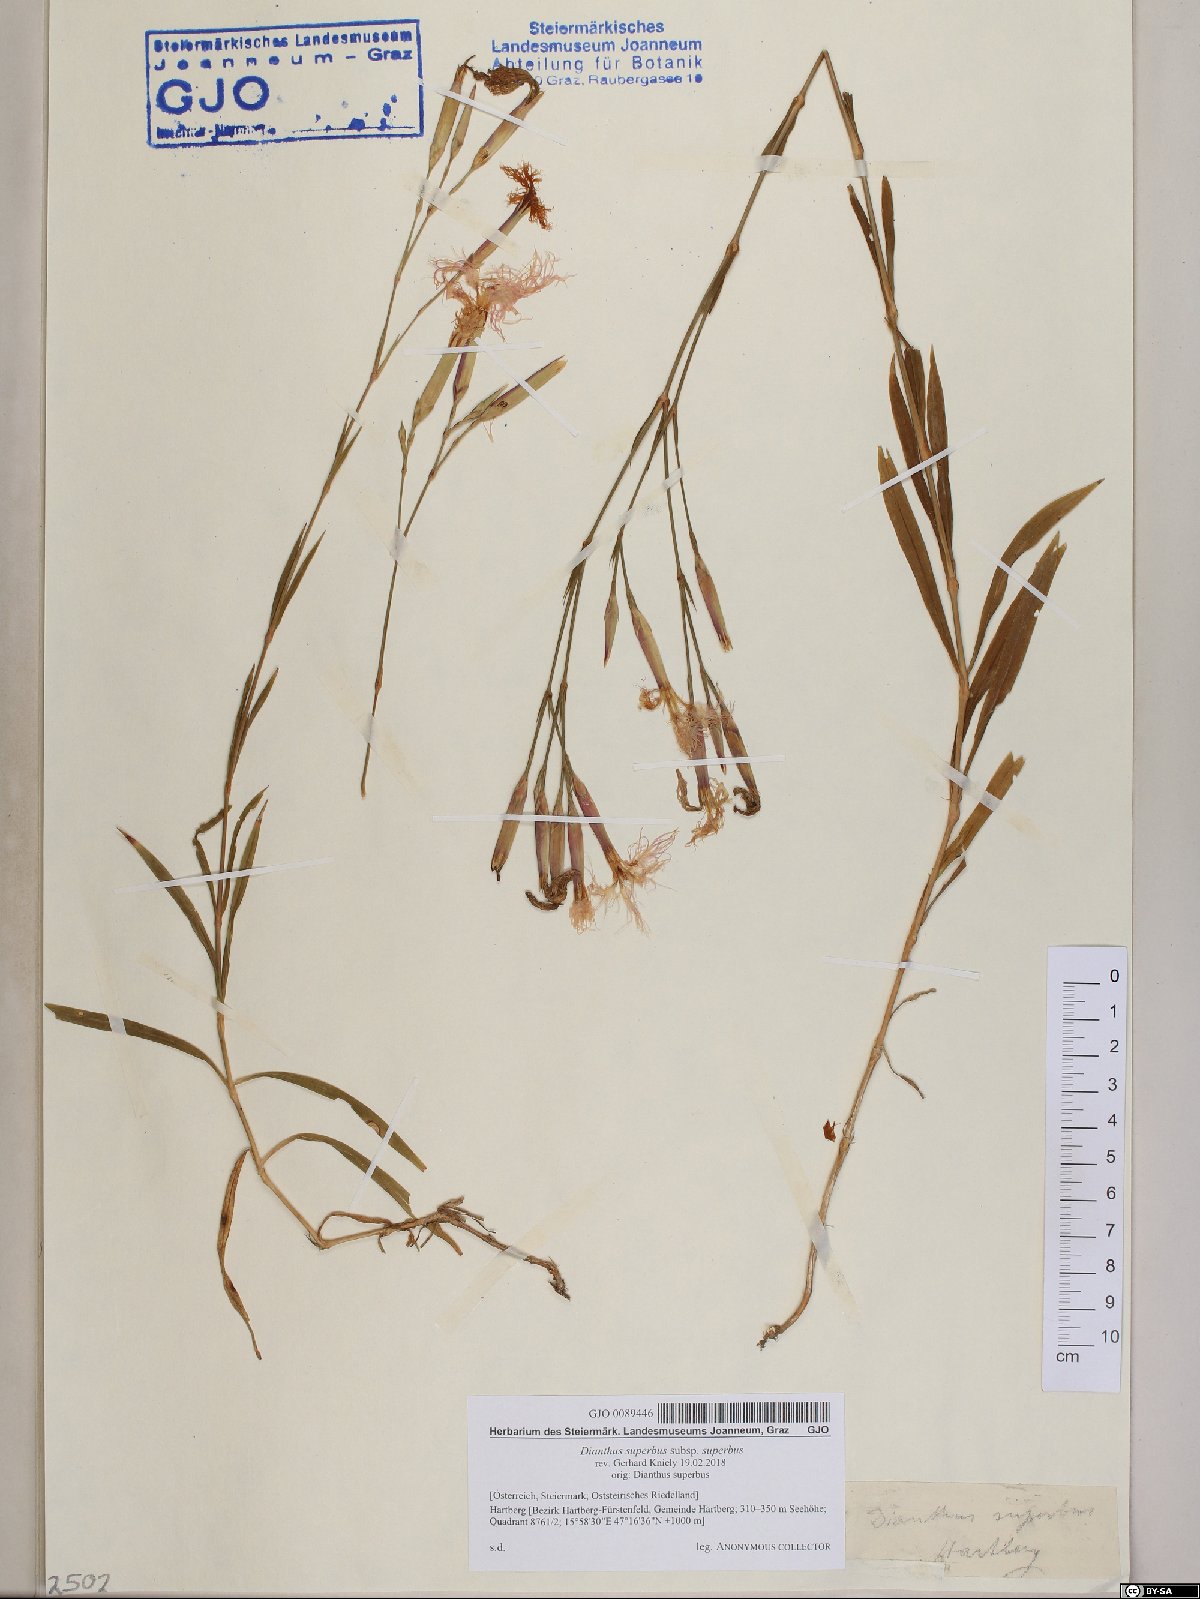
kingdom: Plantae
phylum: Tracheophyta
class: Magnoliopsida
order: Caryophyllales
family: Caryophyllaceae
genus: Dianthus
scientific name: Dianthus superbus
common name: Fringed pink
